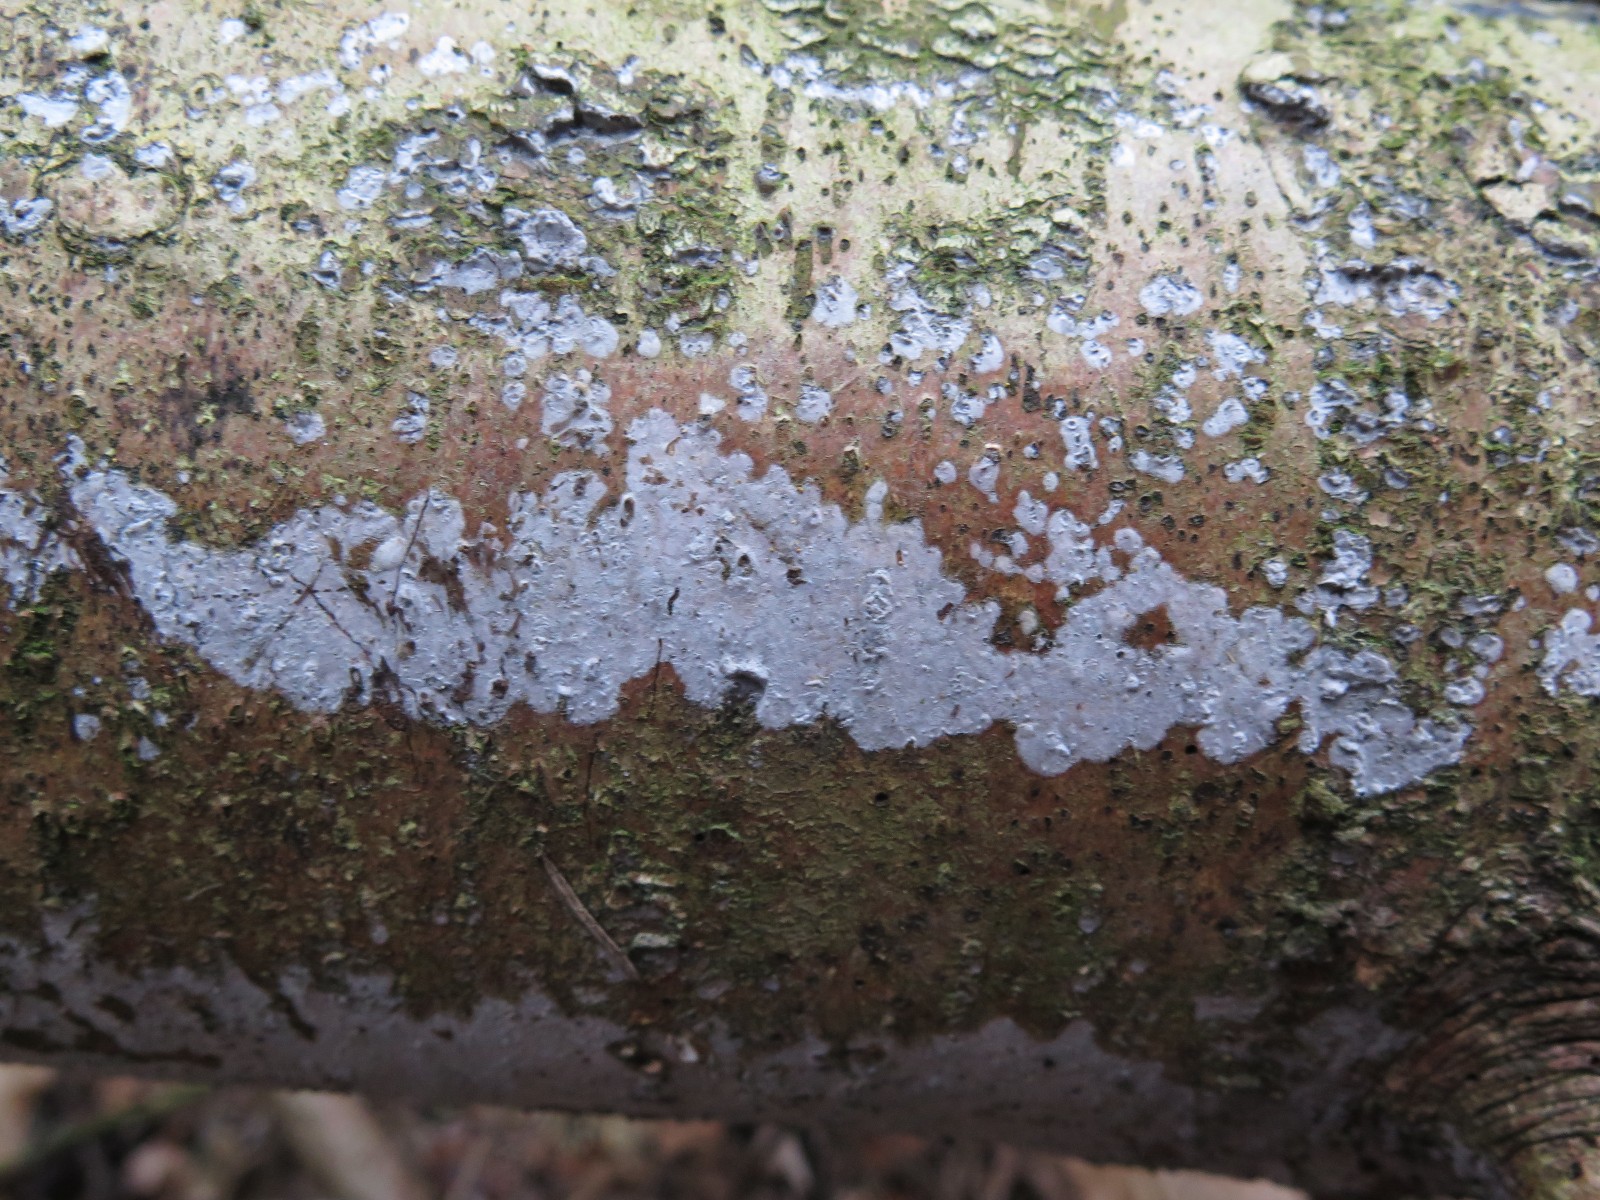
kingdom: Fungi
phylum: Basidiomycota
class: Agaricomycetes
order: Sebacinales
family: Sebacinaceae
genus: Sebacina
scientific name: Sebacina grisea
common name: blågrå bævrehinde
